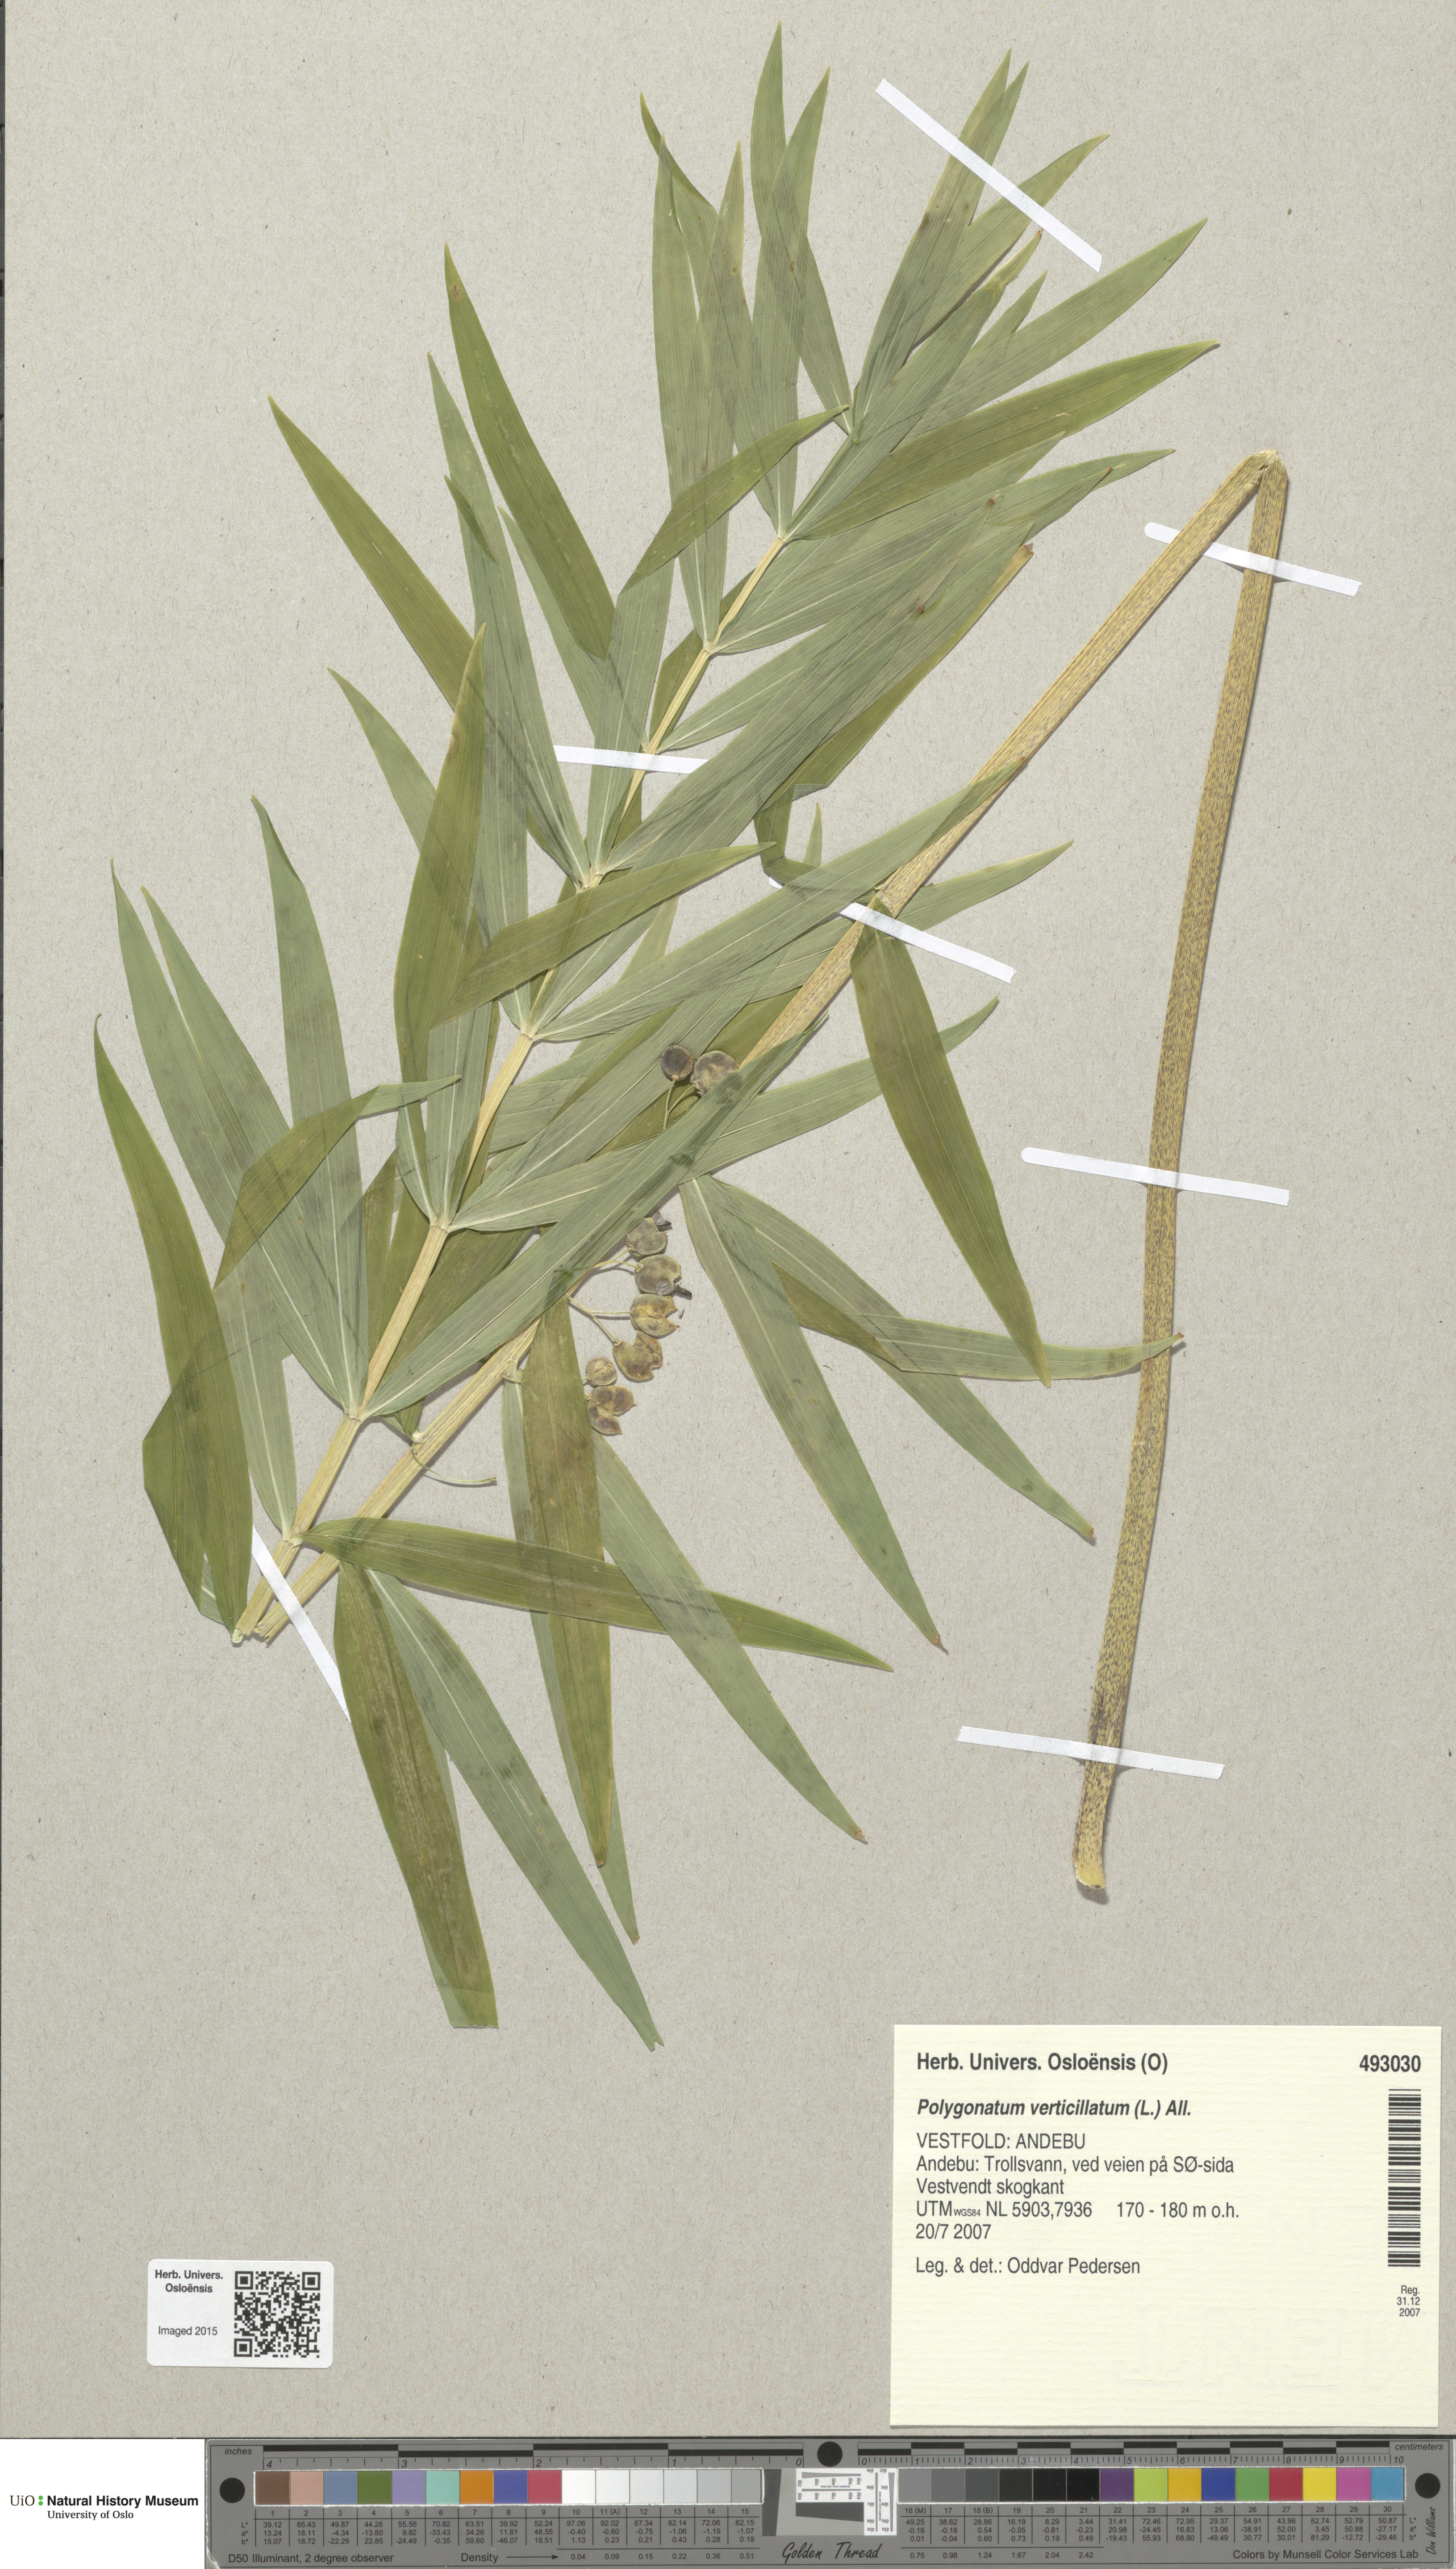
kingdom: Plantae
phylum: Tracheophyta
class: Liliopsida
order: Asparagales
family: Asparagaceae
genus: Polygonatum
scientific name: Polygonatum verticillatum
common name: Whorled solomon's-seal
